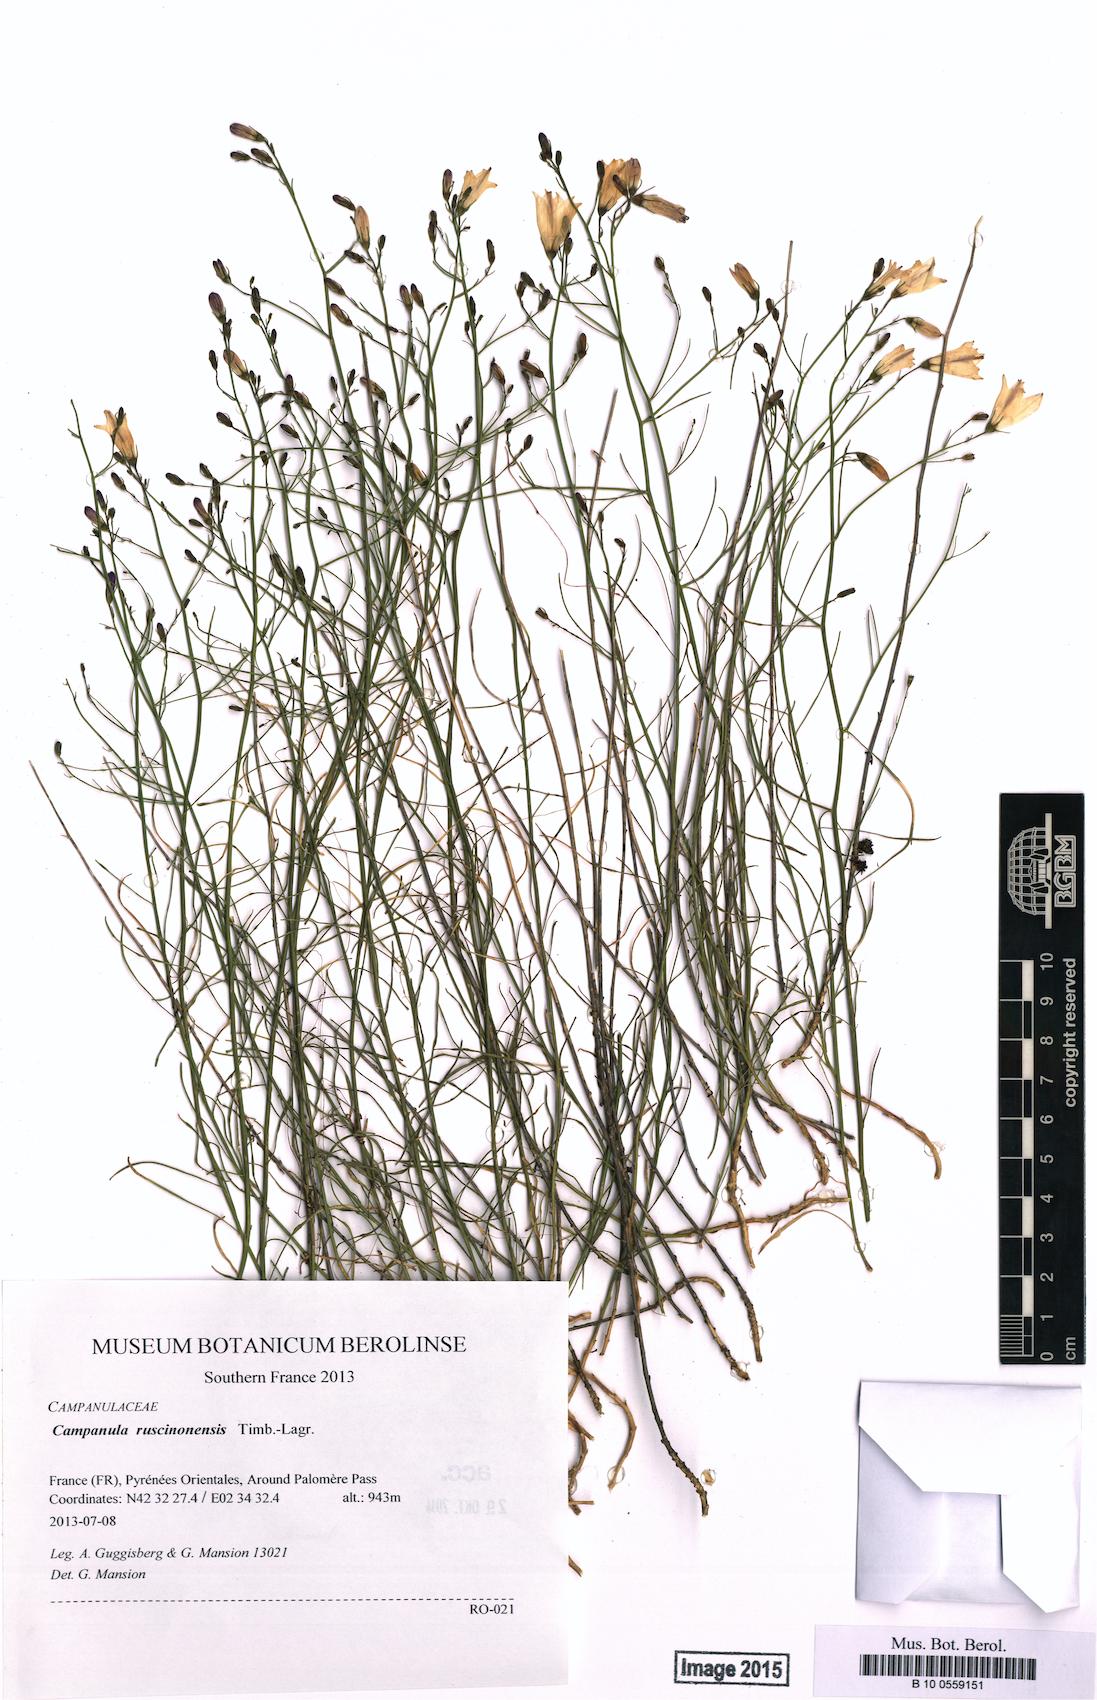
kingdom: Plantae
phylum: Tracheophyta
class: Magnoliopsida
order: Asterales
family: Campanulaceae
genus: Campanula
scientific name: Campanula ruscinonensis
